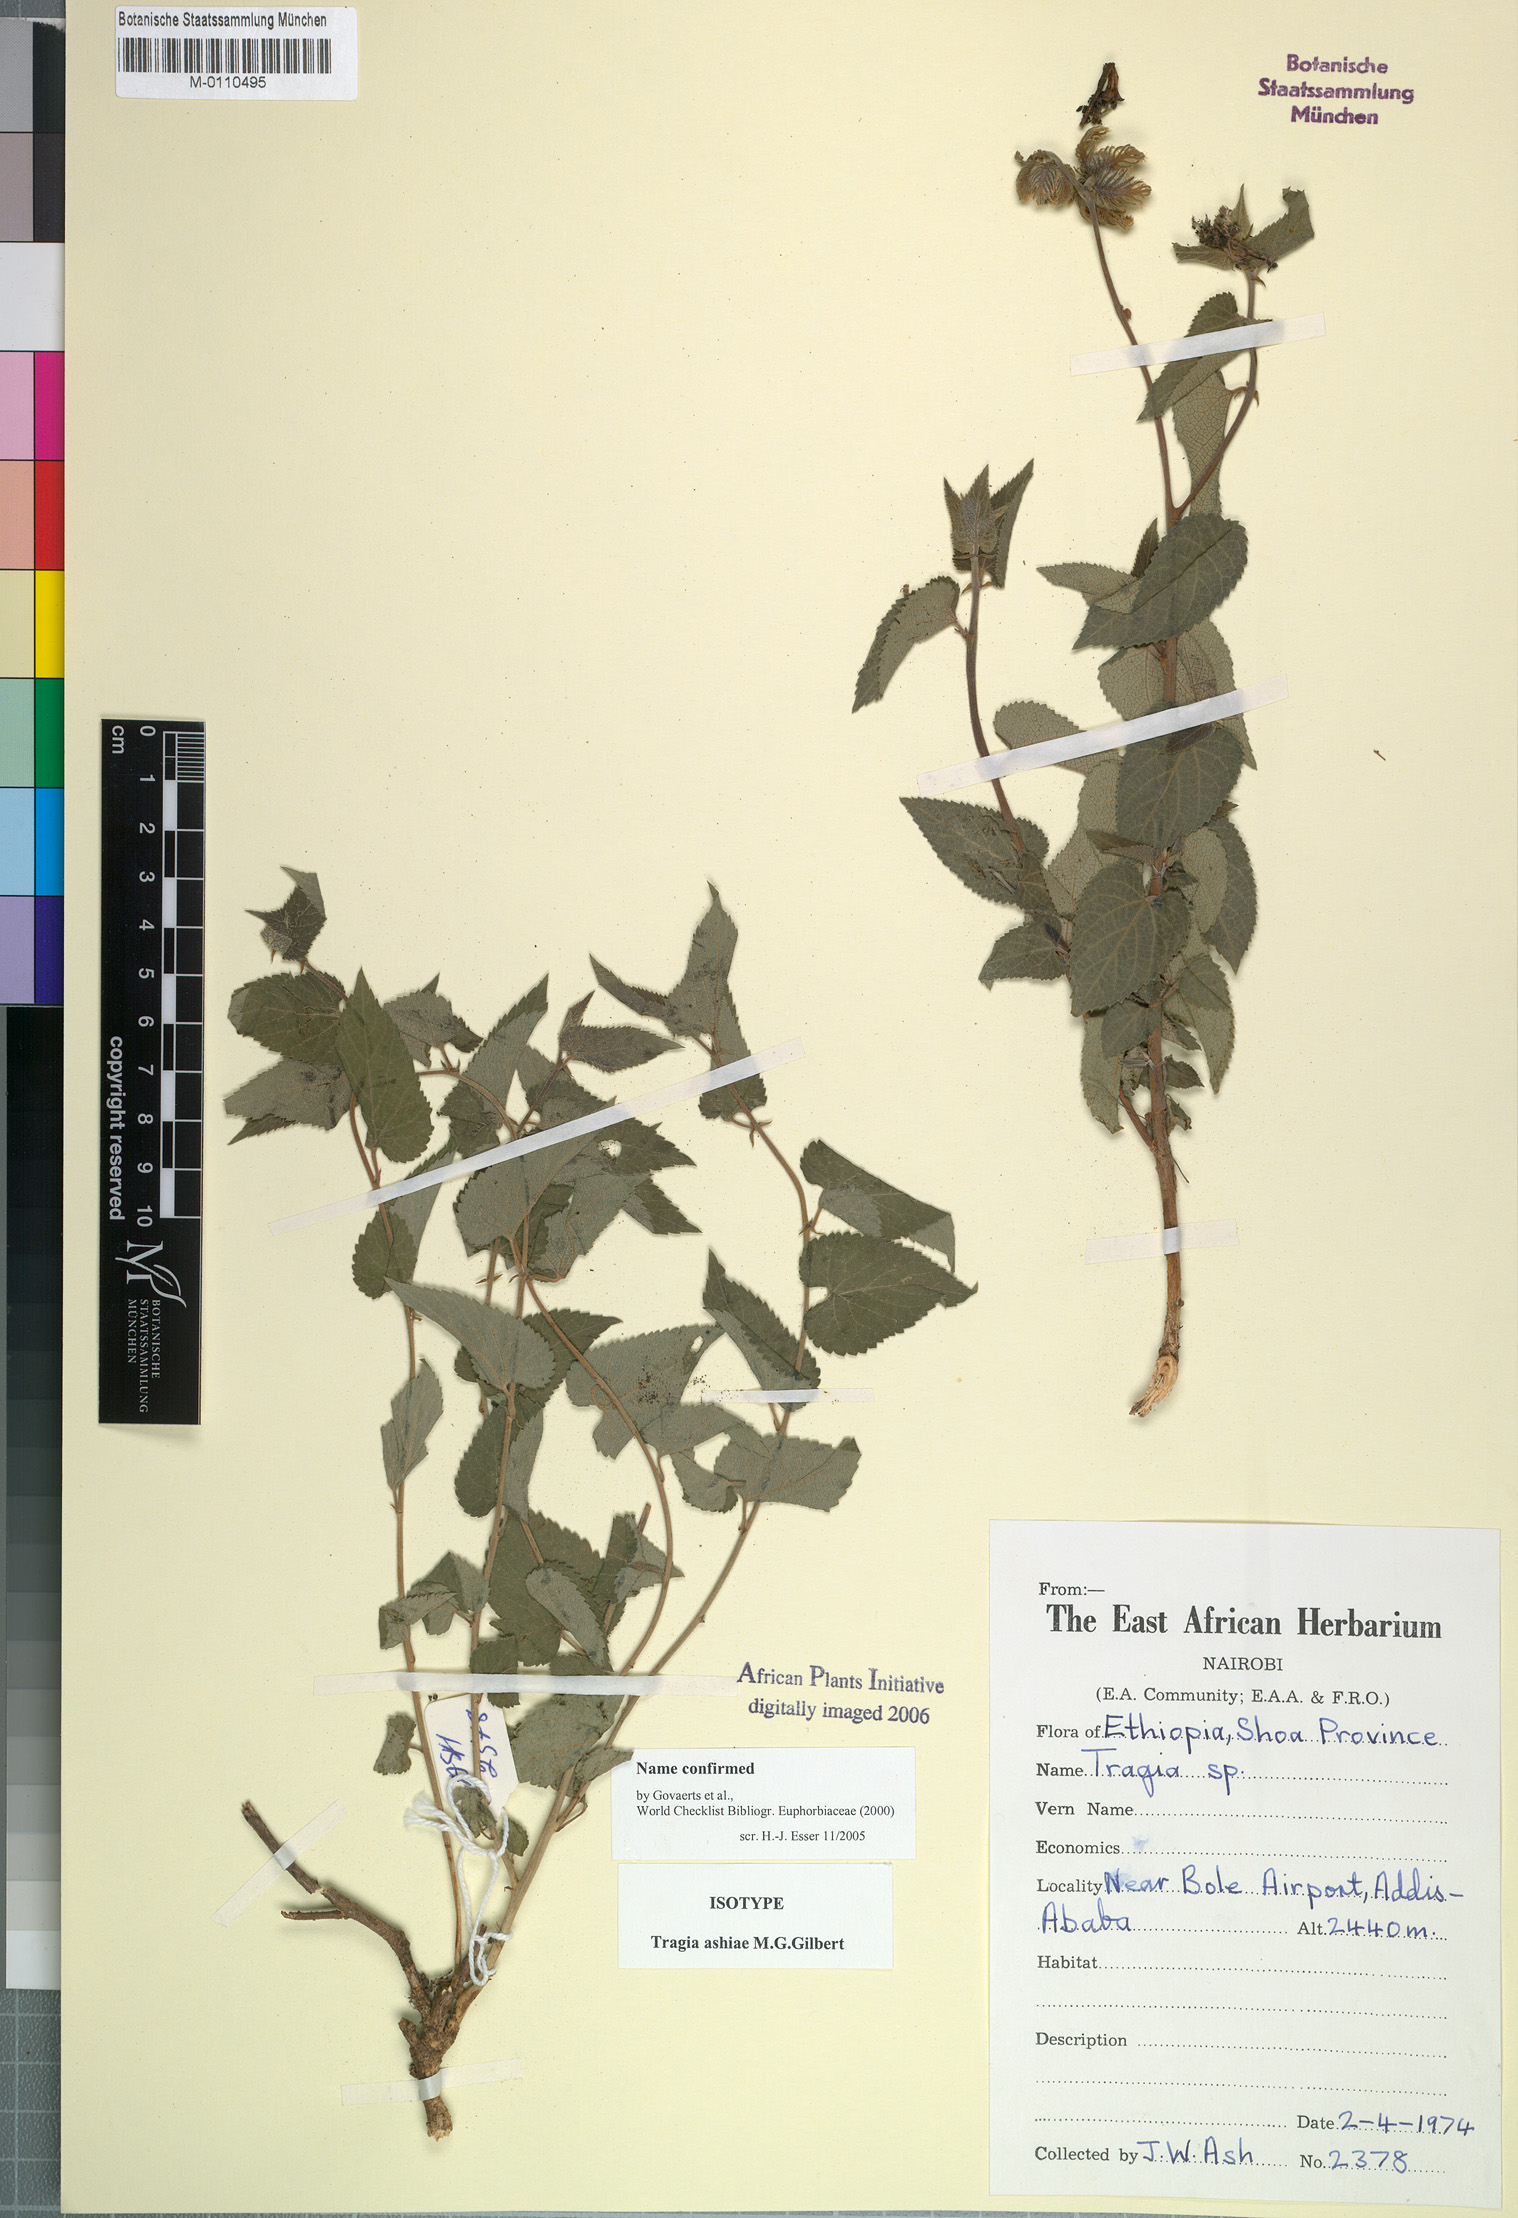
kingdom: Plantae
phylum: Tracheophyta
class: Magnoliopsida
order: Malpighiales
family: Euphorbiaceae
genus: Tragia
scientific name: Tragia ashiae
